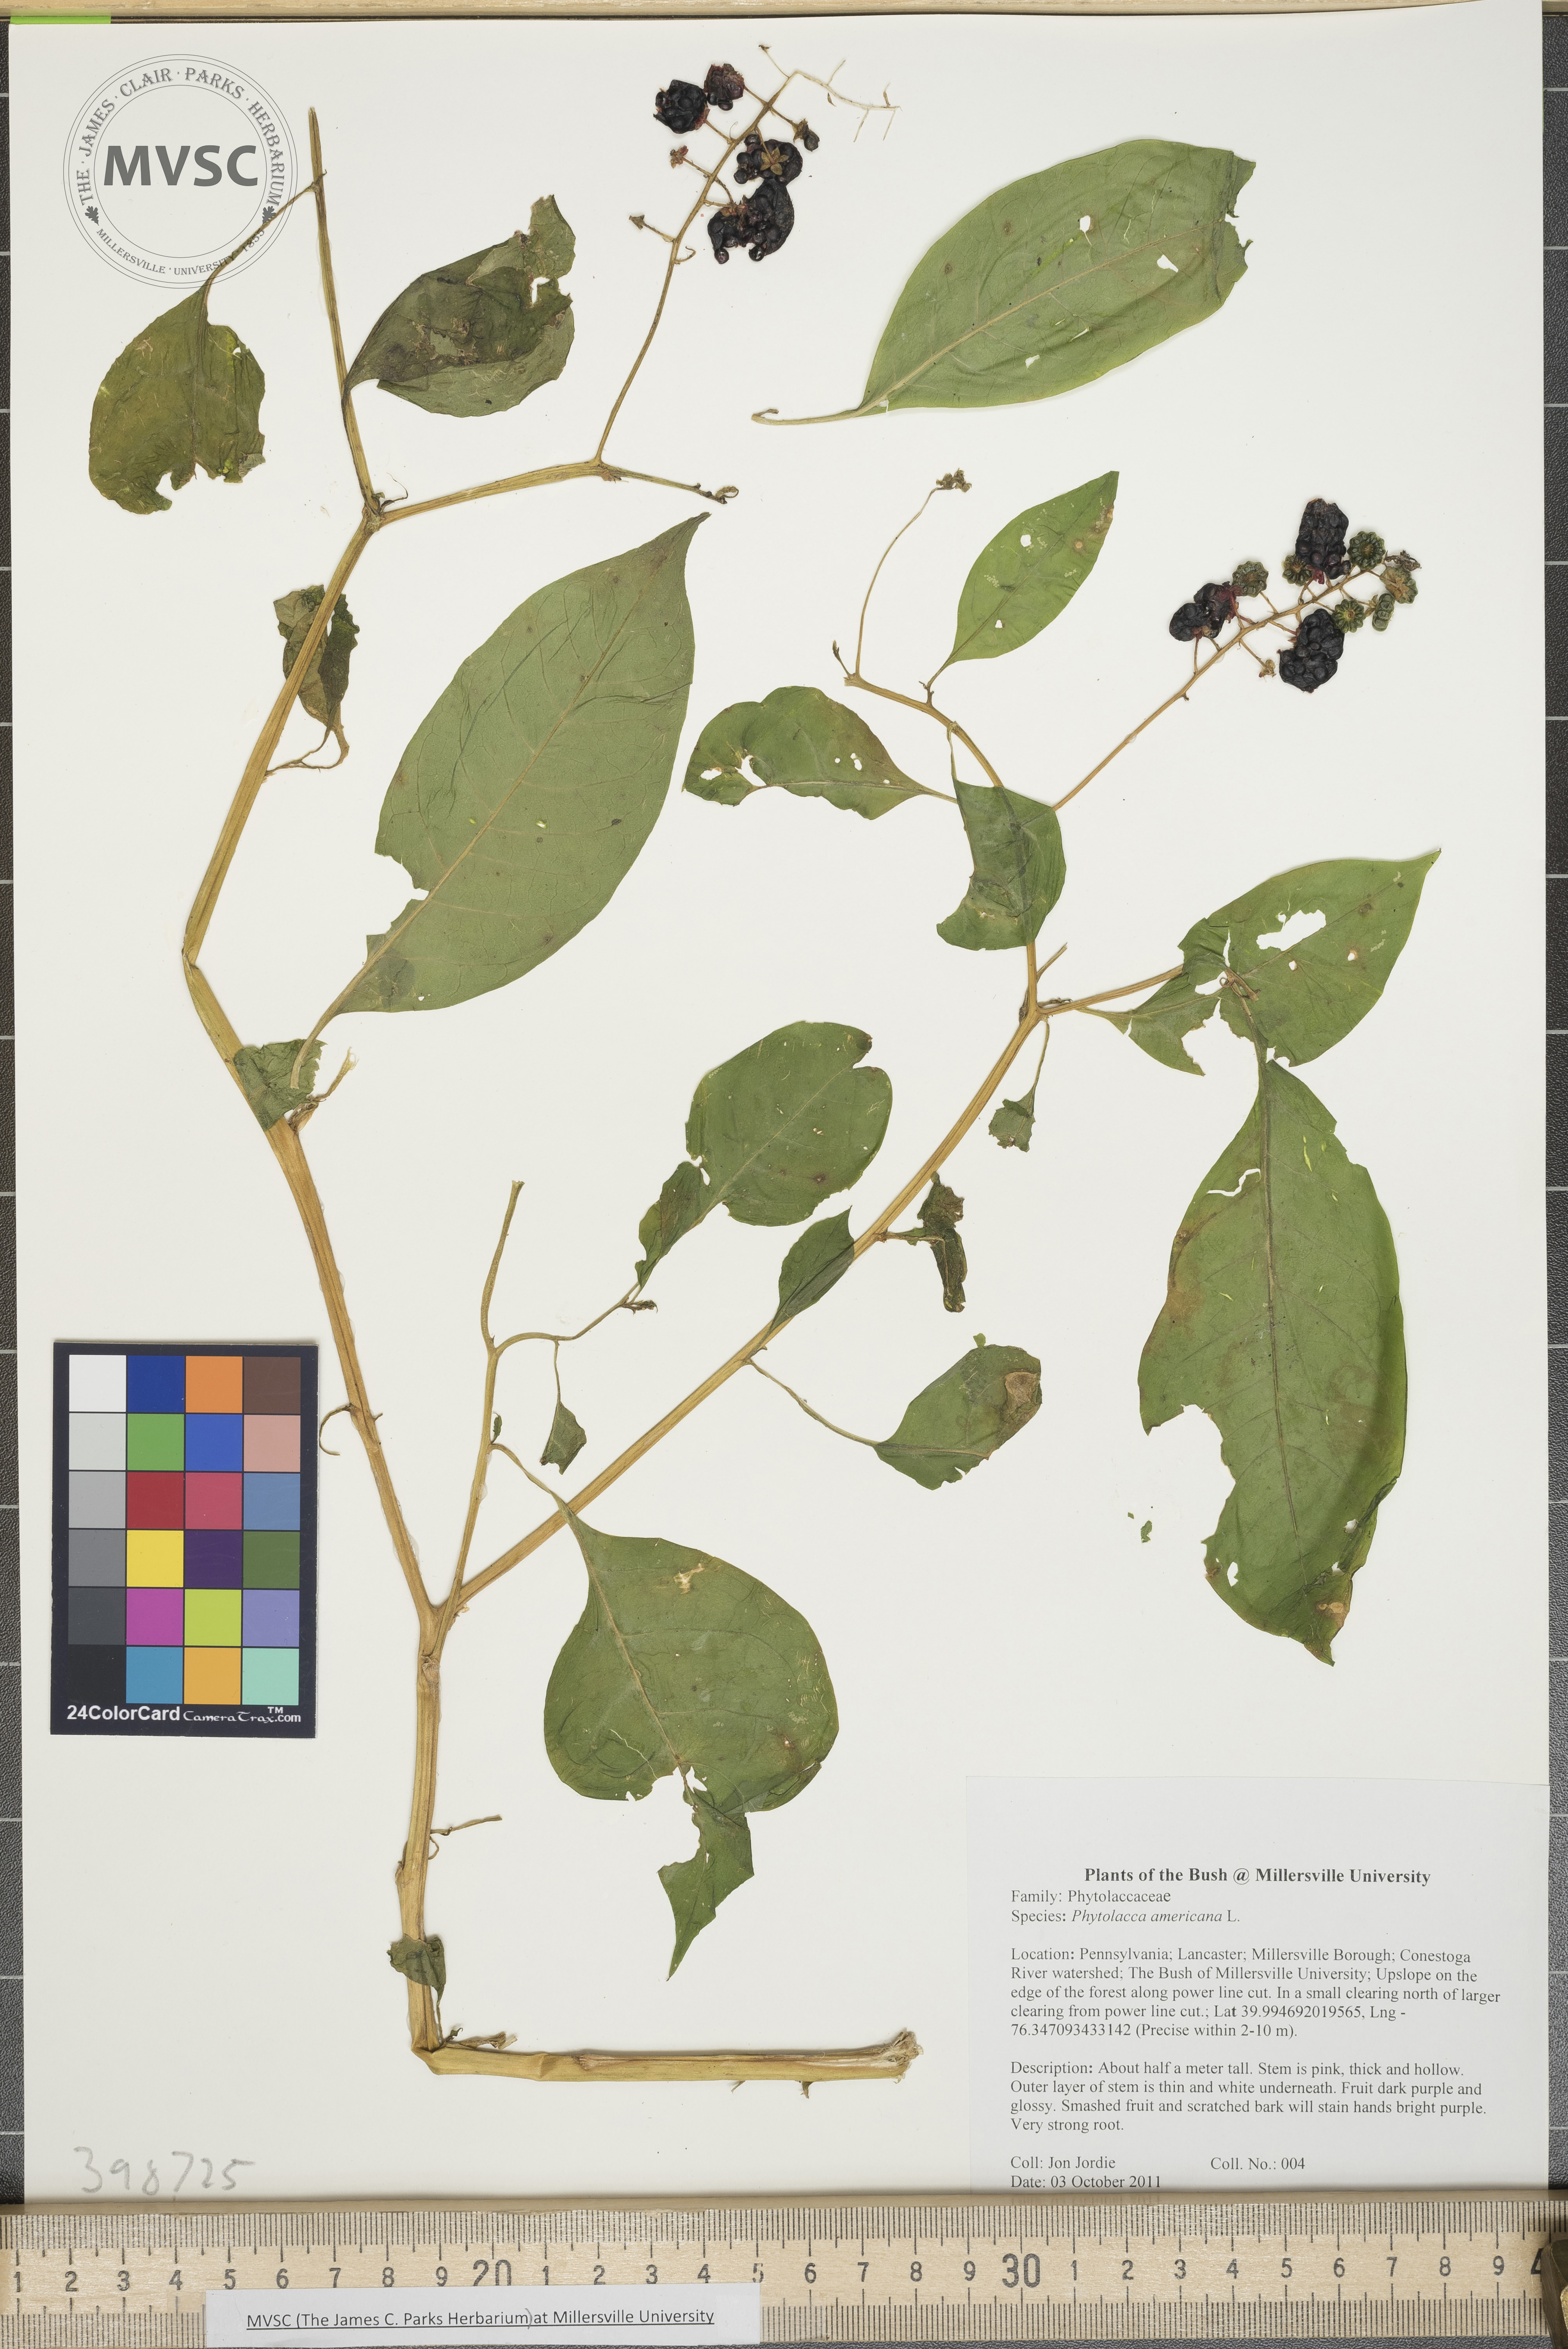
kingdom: Plantae
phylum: Tracheophyta
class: Magnoliopsida
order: Caryophyllales
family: Phytolaccaceae
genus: Phytolacca
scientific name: Phytolacca americana
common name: Pokeweed
